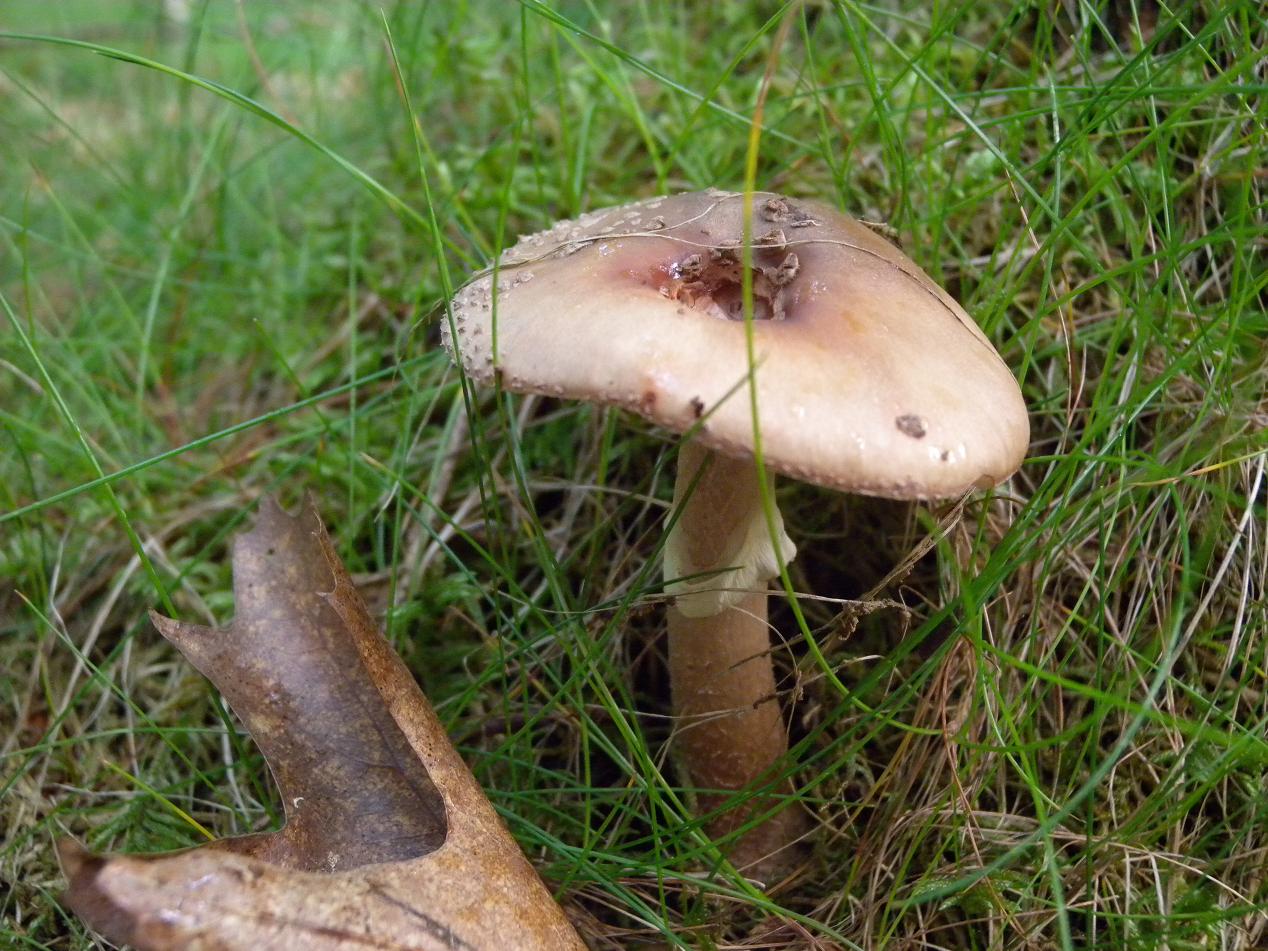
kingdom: Fungi
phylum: Basidiomycota
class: Agaricomycetes
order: Agaricales
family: Amanitaceae
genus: Amanita
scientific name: Amanita rubescens
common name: rødmende fluesvamp
